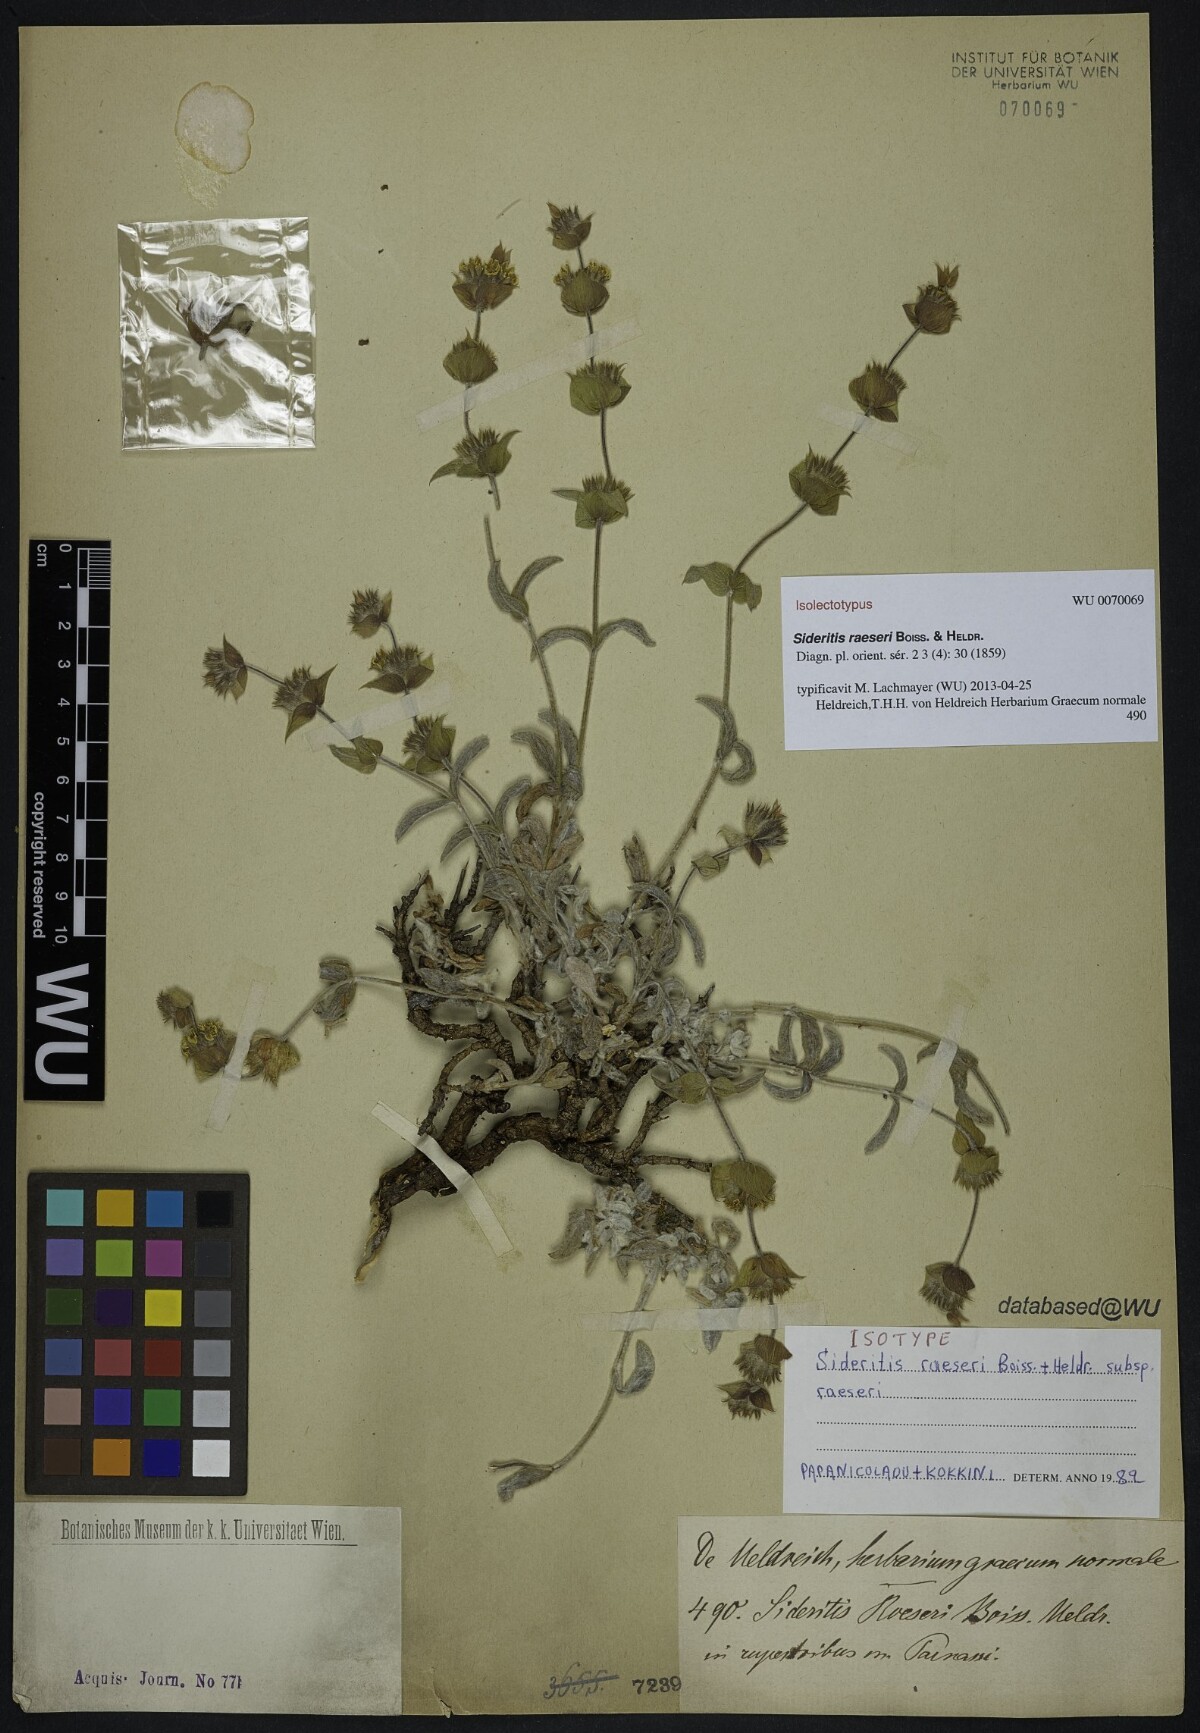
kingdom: Plantae
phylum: Tracheophyta
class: Magnoliopsida
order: Lamiales
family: Lamiaceae
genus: Sideritis
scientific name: Sideritis raeseri
